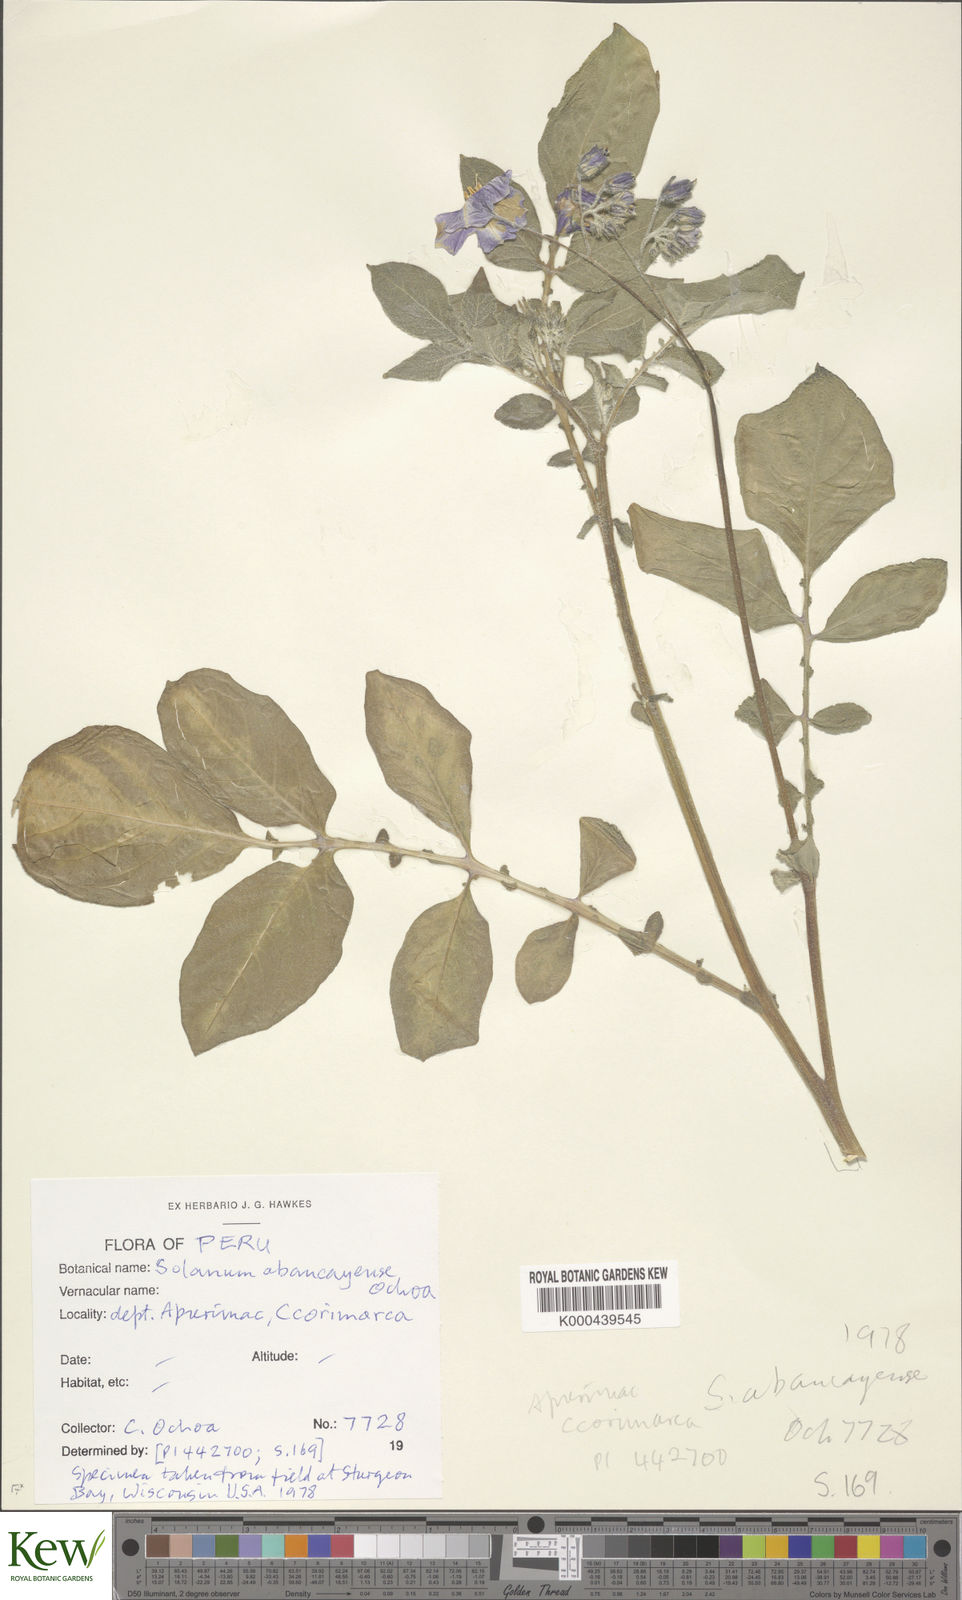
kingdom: Plantae
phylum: Tracheophyta
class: Magnoliopsida
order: Solanales
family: Solanaceae
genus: Solanum
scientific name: Solanum candolleanum
